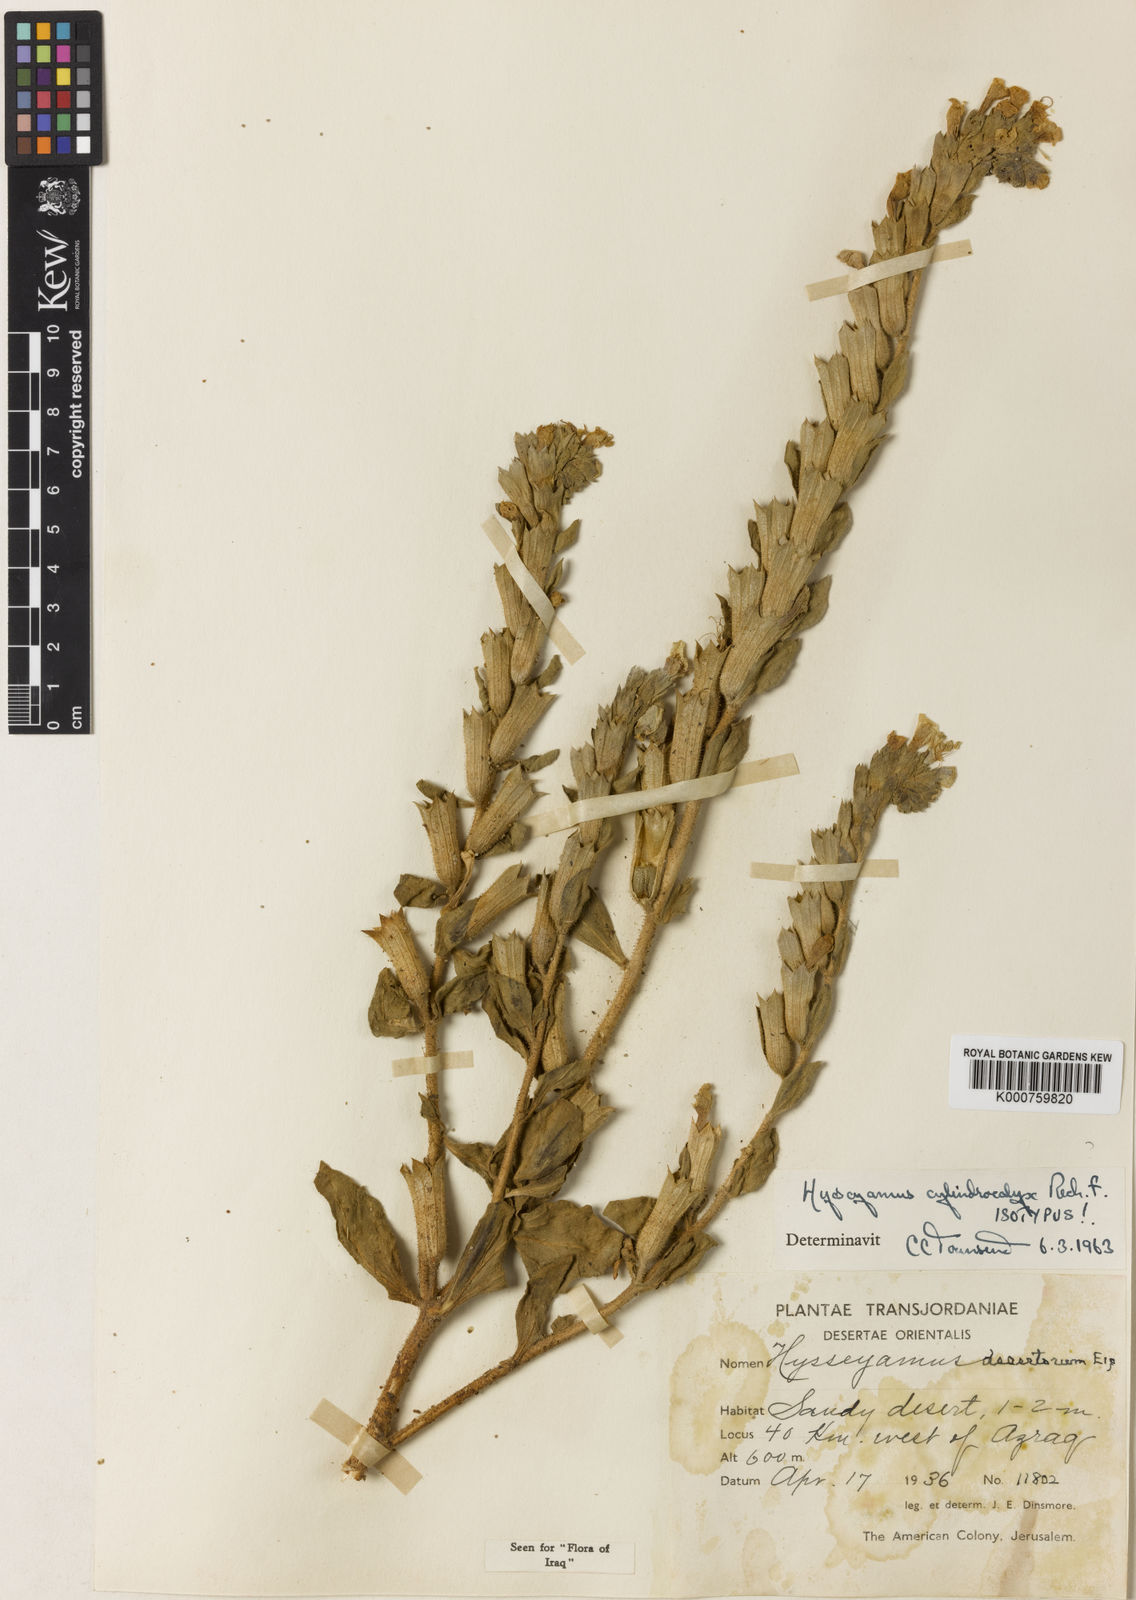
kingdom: Plantae
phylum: Tracheophyta
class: Magnoliopsida
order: Solanales
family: Solanaceae
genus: Hyoscyamus
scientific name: Hyoscyamus albus
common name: White henbane
